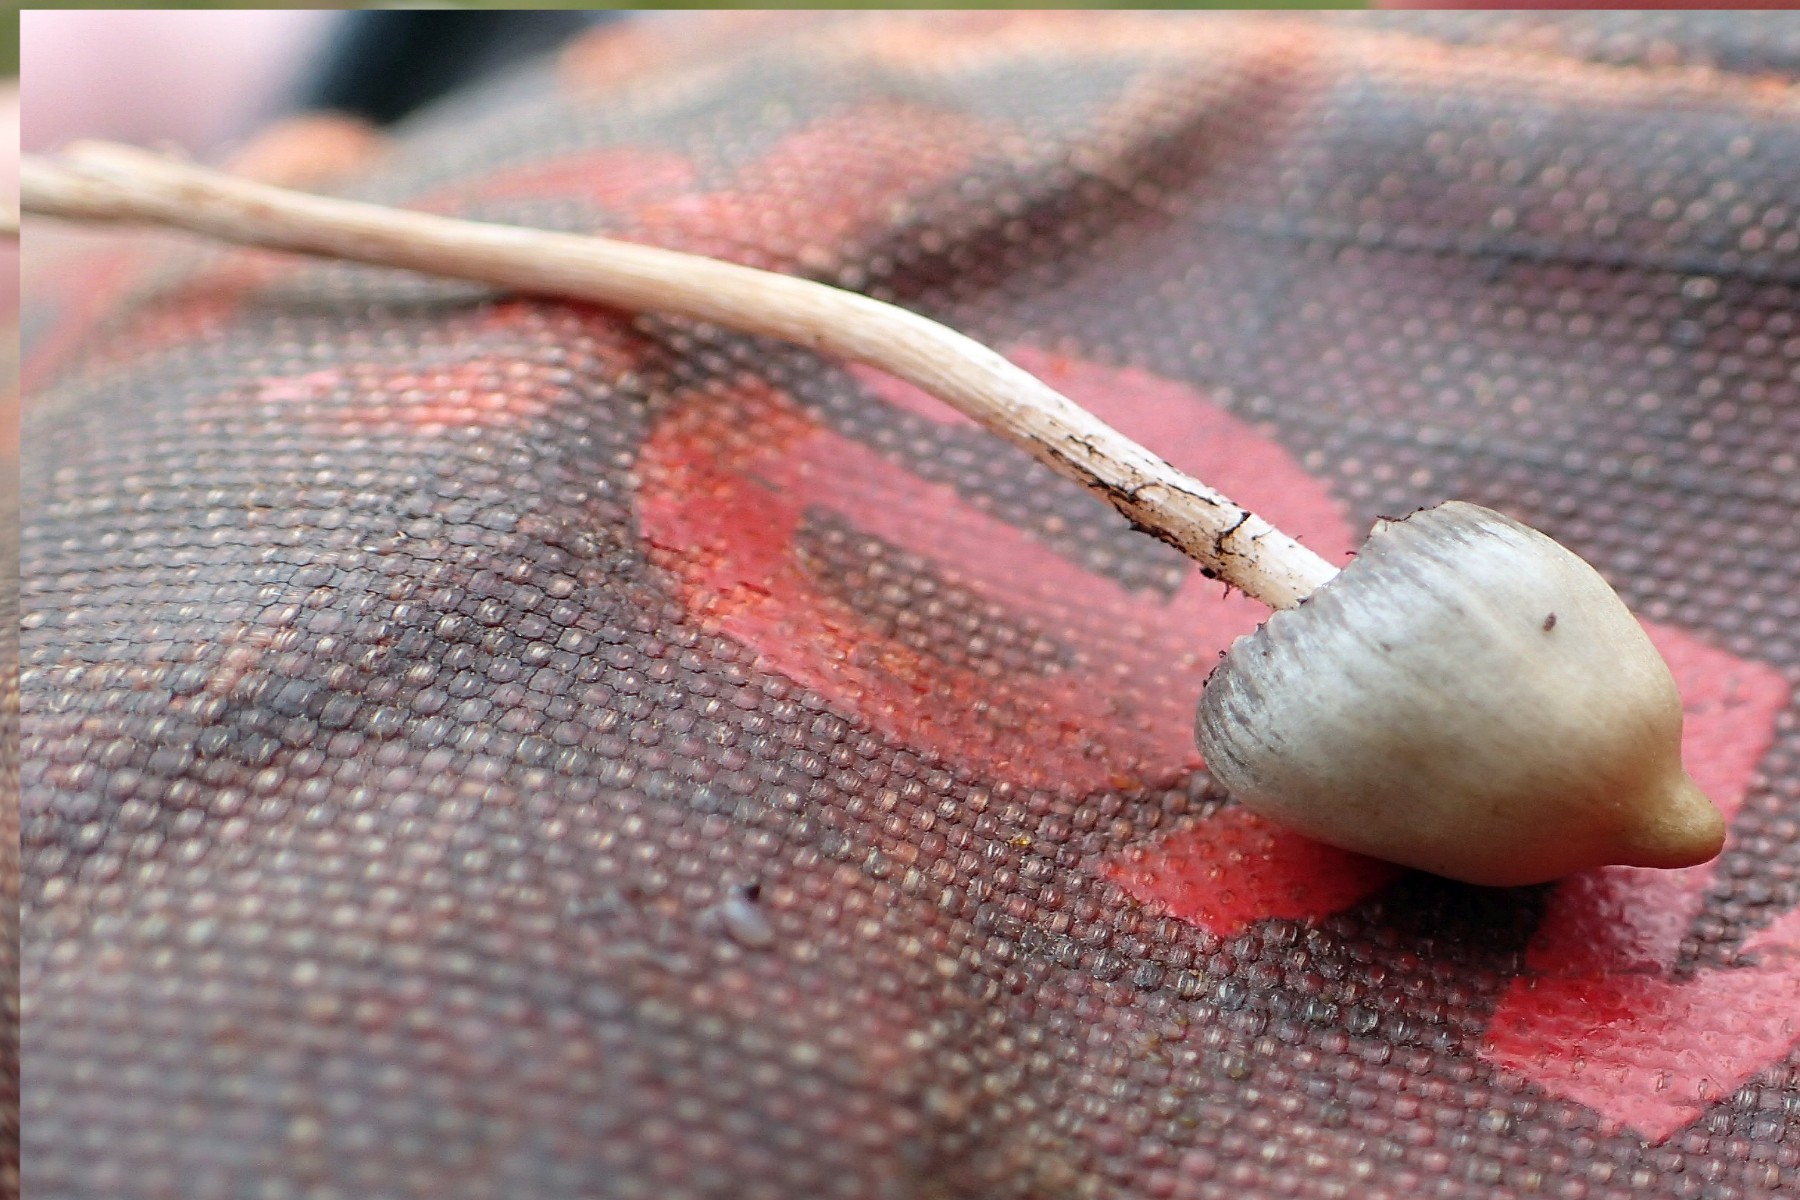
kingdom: Fungi
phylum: Basidiomycota
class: Agaricomycetes
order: Agaricales
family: Hymenogastraceae
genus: Psilocybe
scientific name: Psilocybe semilanceata
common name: spids nøgenhat
